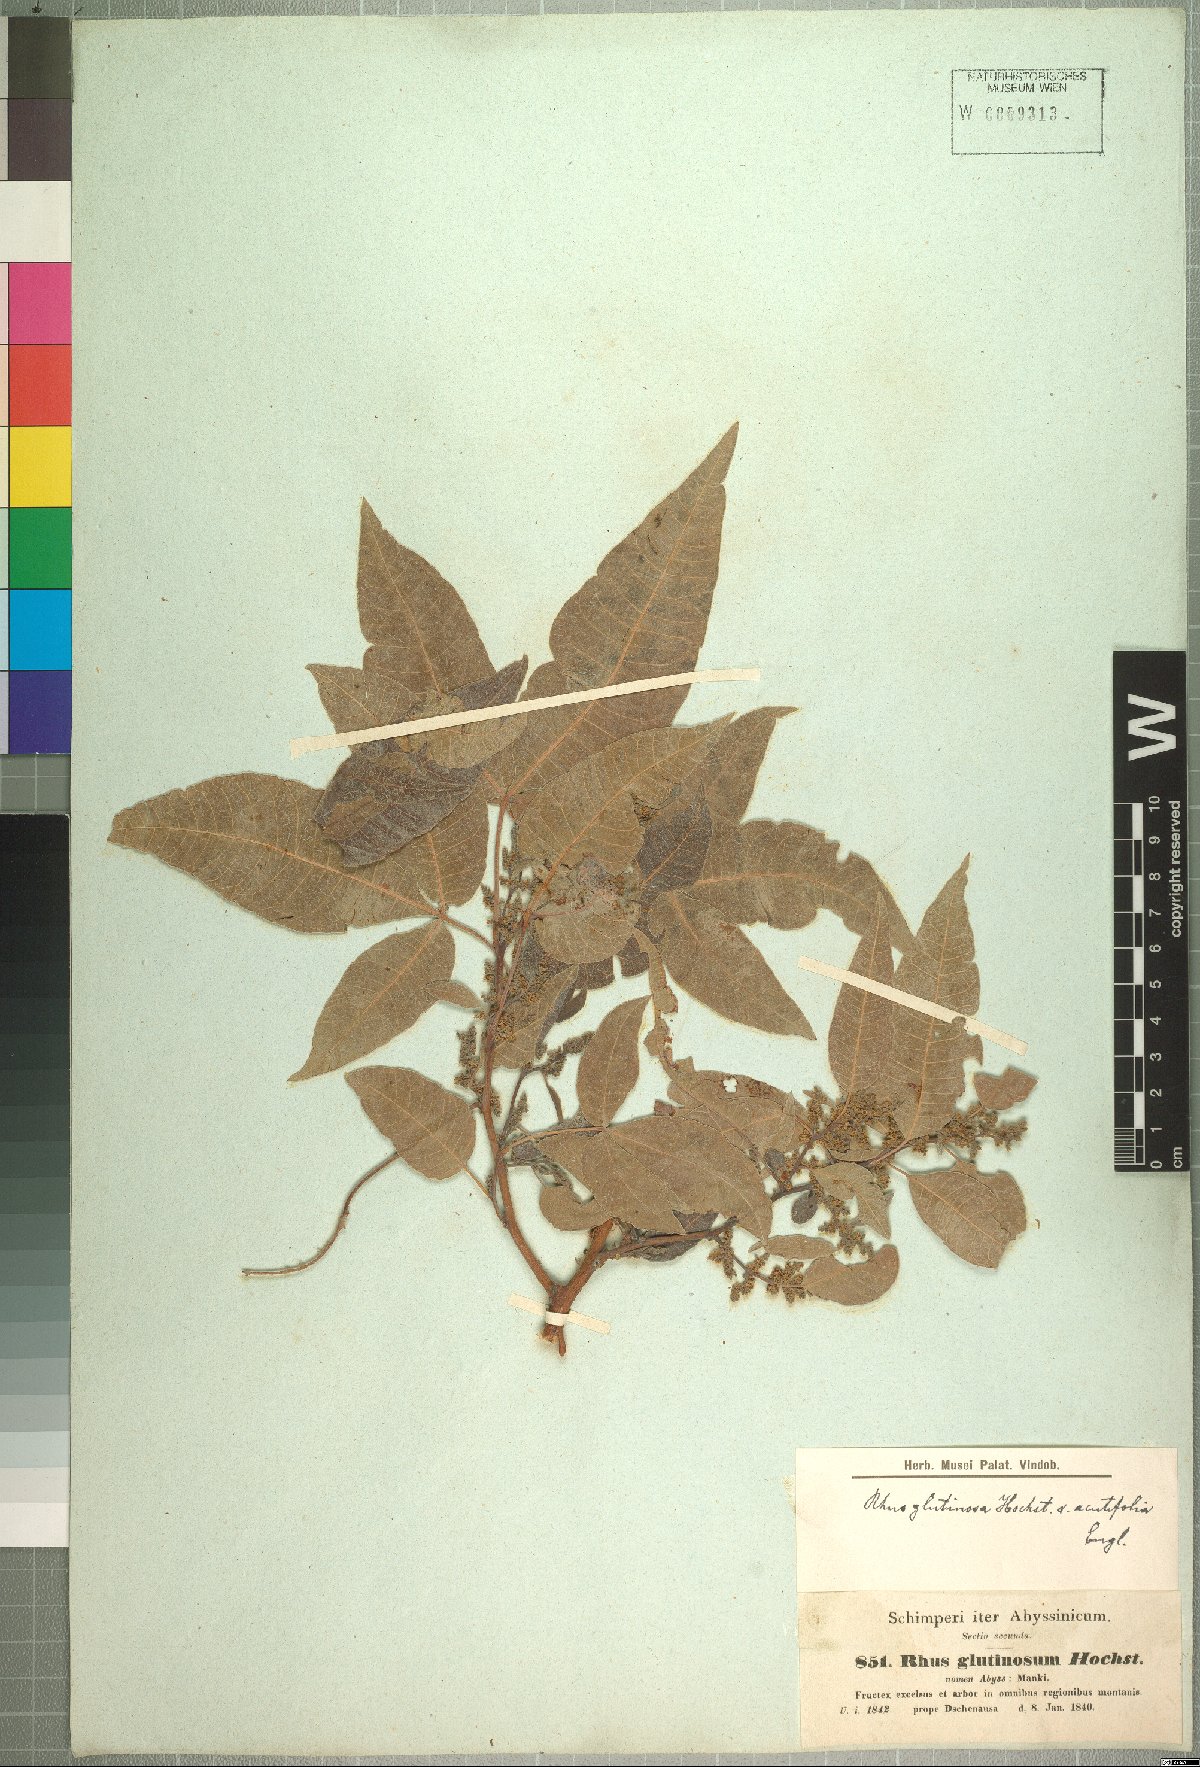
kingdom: Plantae
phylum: Tracheophyta
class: Magnoliopsida
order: Sapindales
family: Anacardiaceae
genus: Searsia
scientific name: Searsia glutinosa
